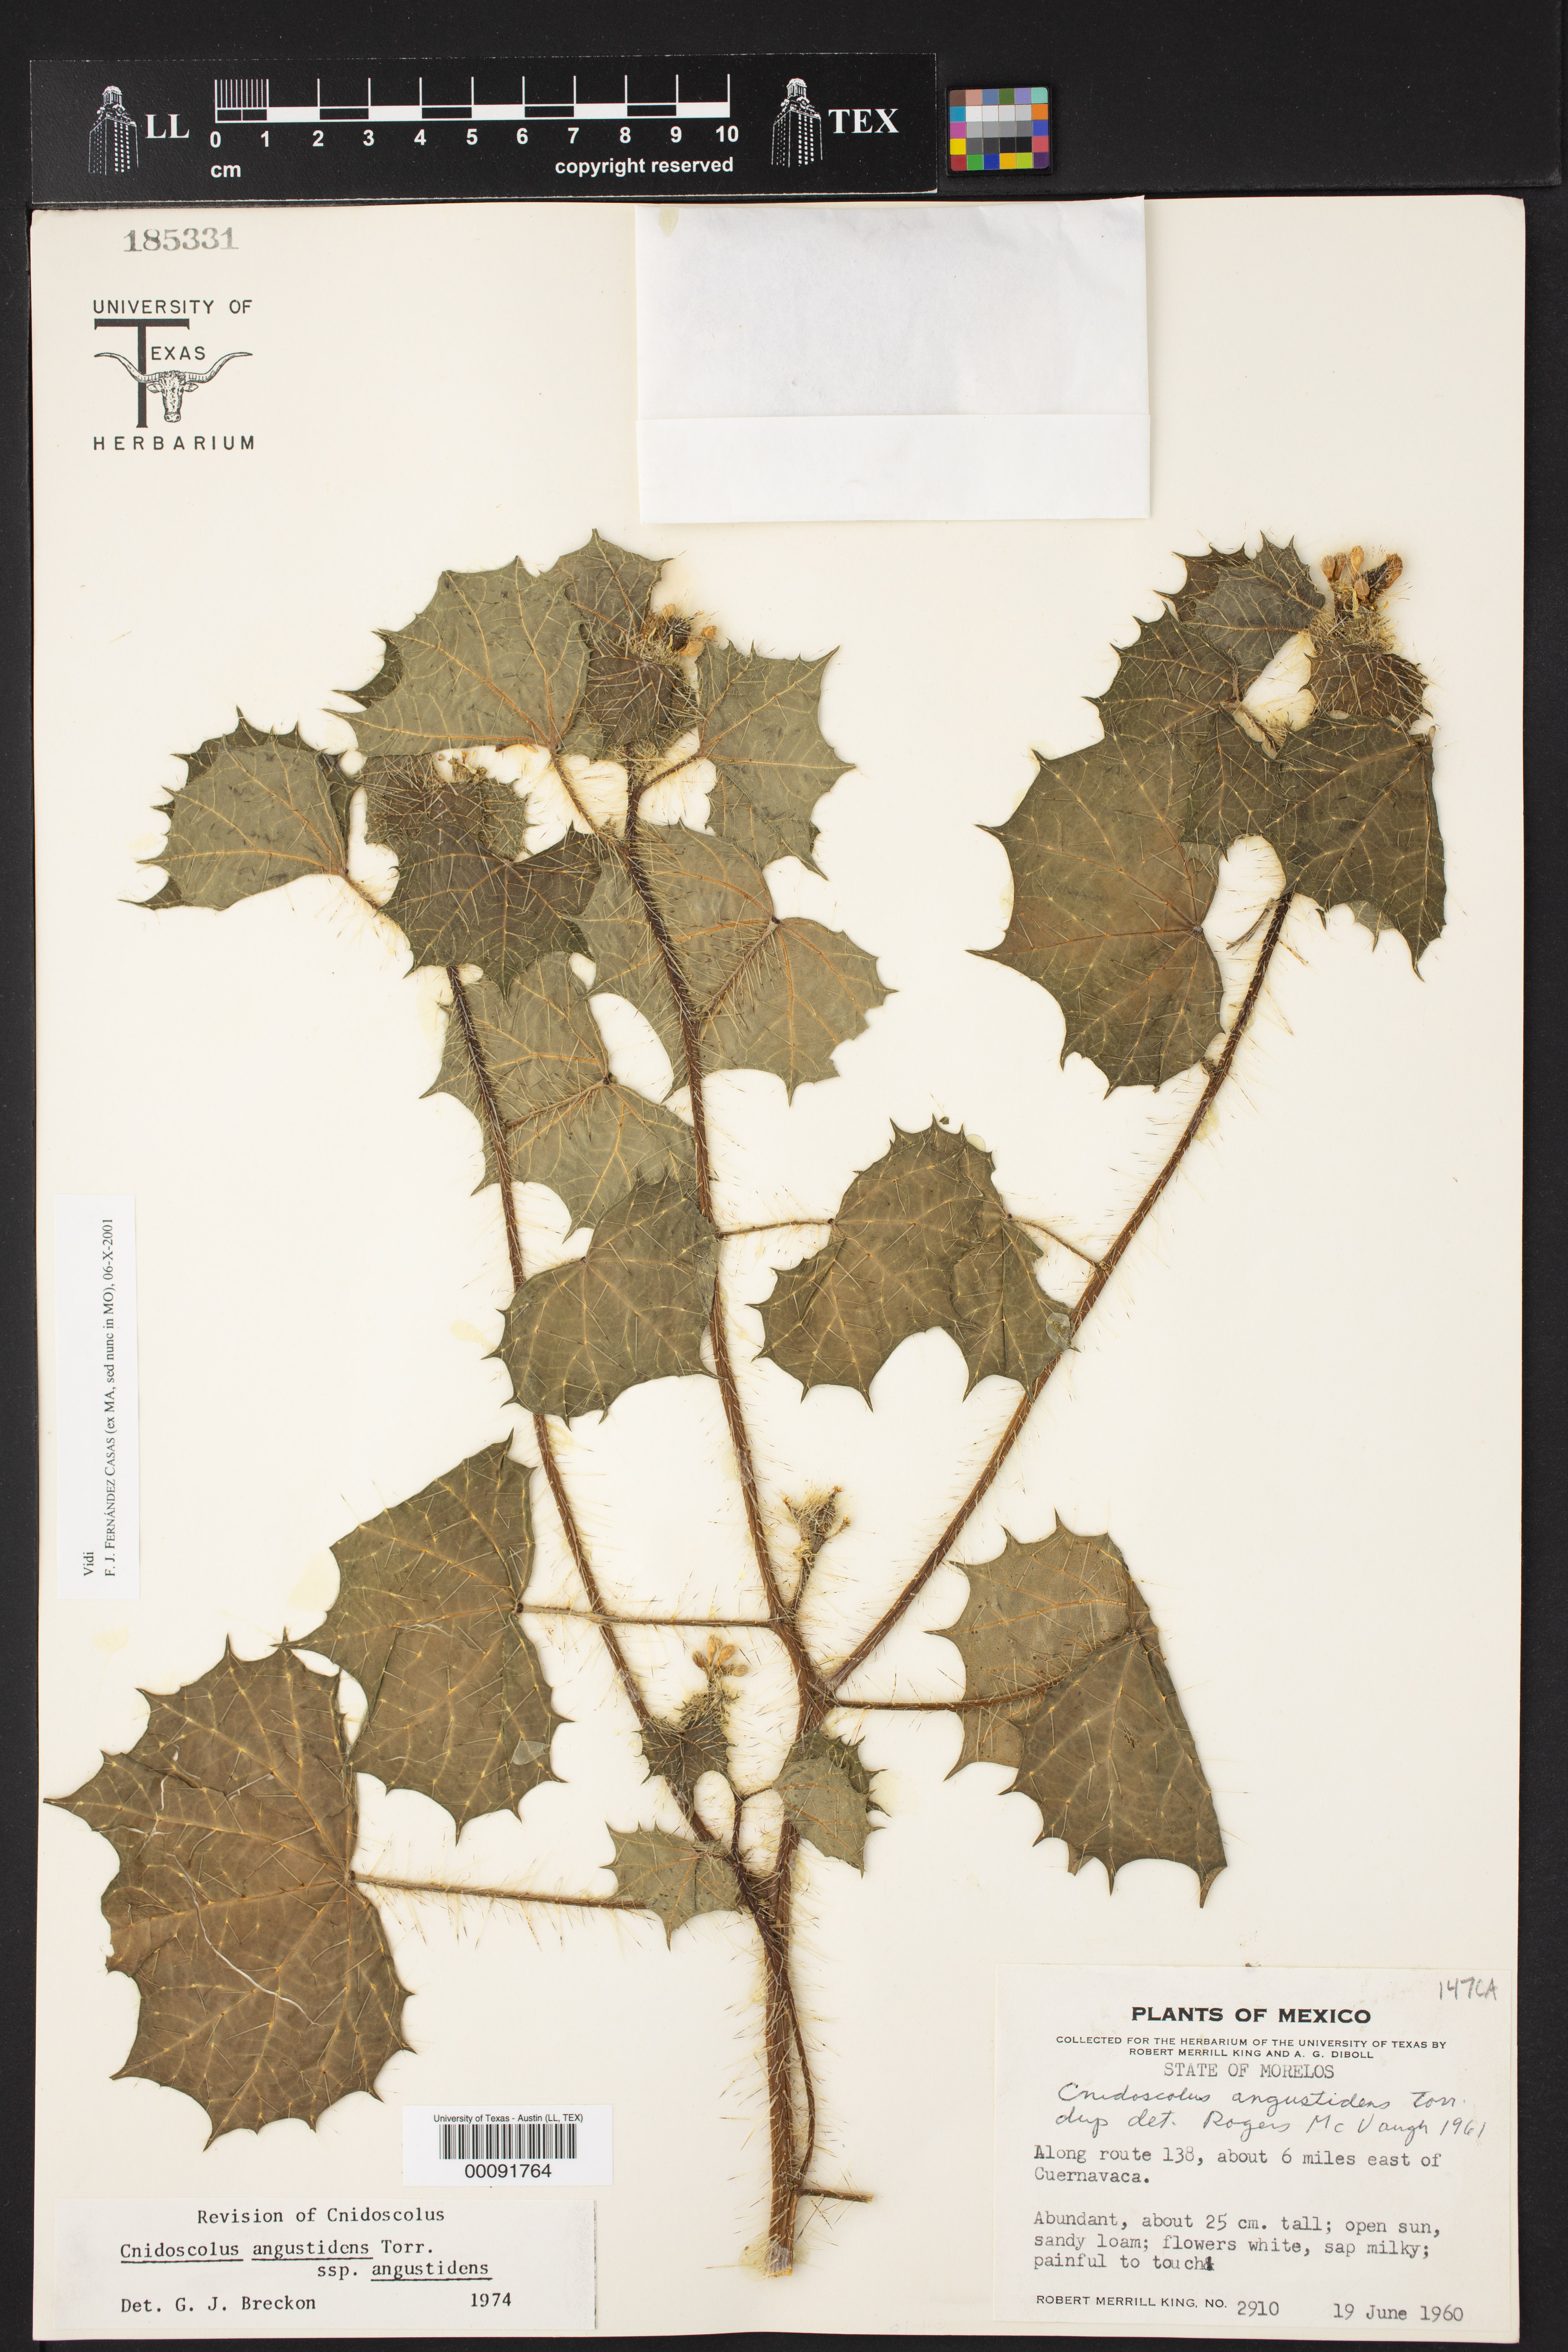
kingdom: Plantae
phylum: Tracheophyta
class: Magnoliopsida
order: Malpighiales
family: Euphorbiaceae
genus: Cnidoscolus
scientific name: Cnidoscolus angustidens
